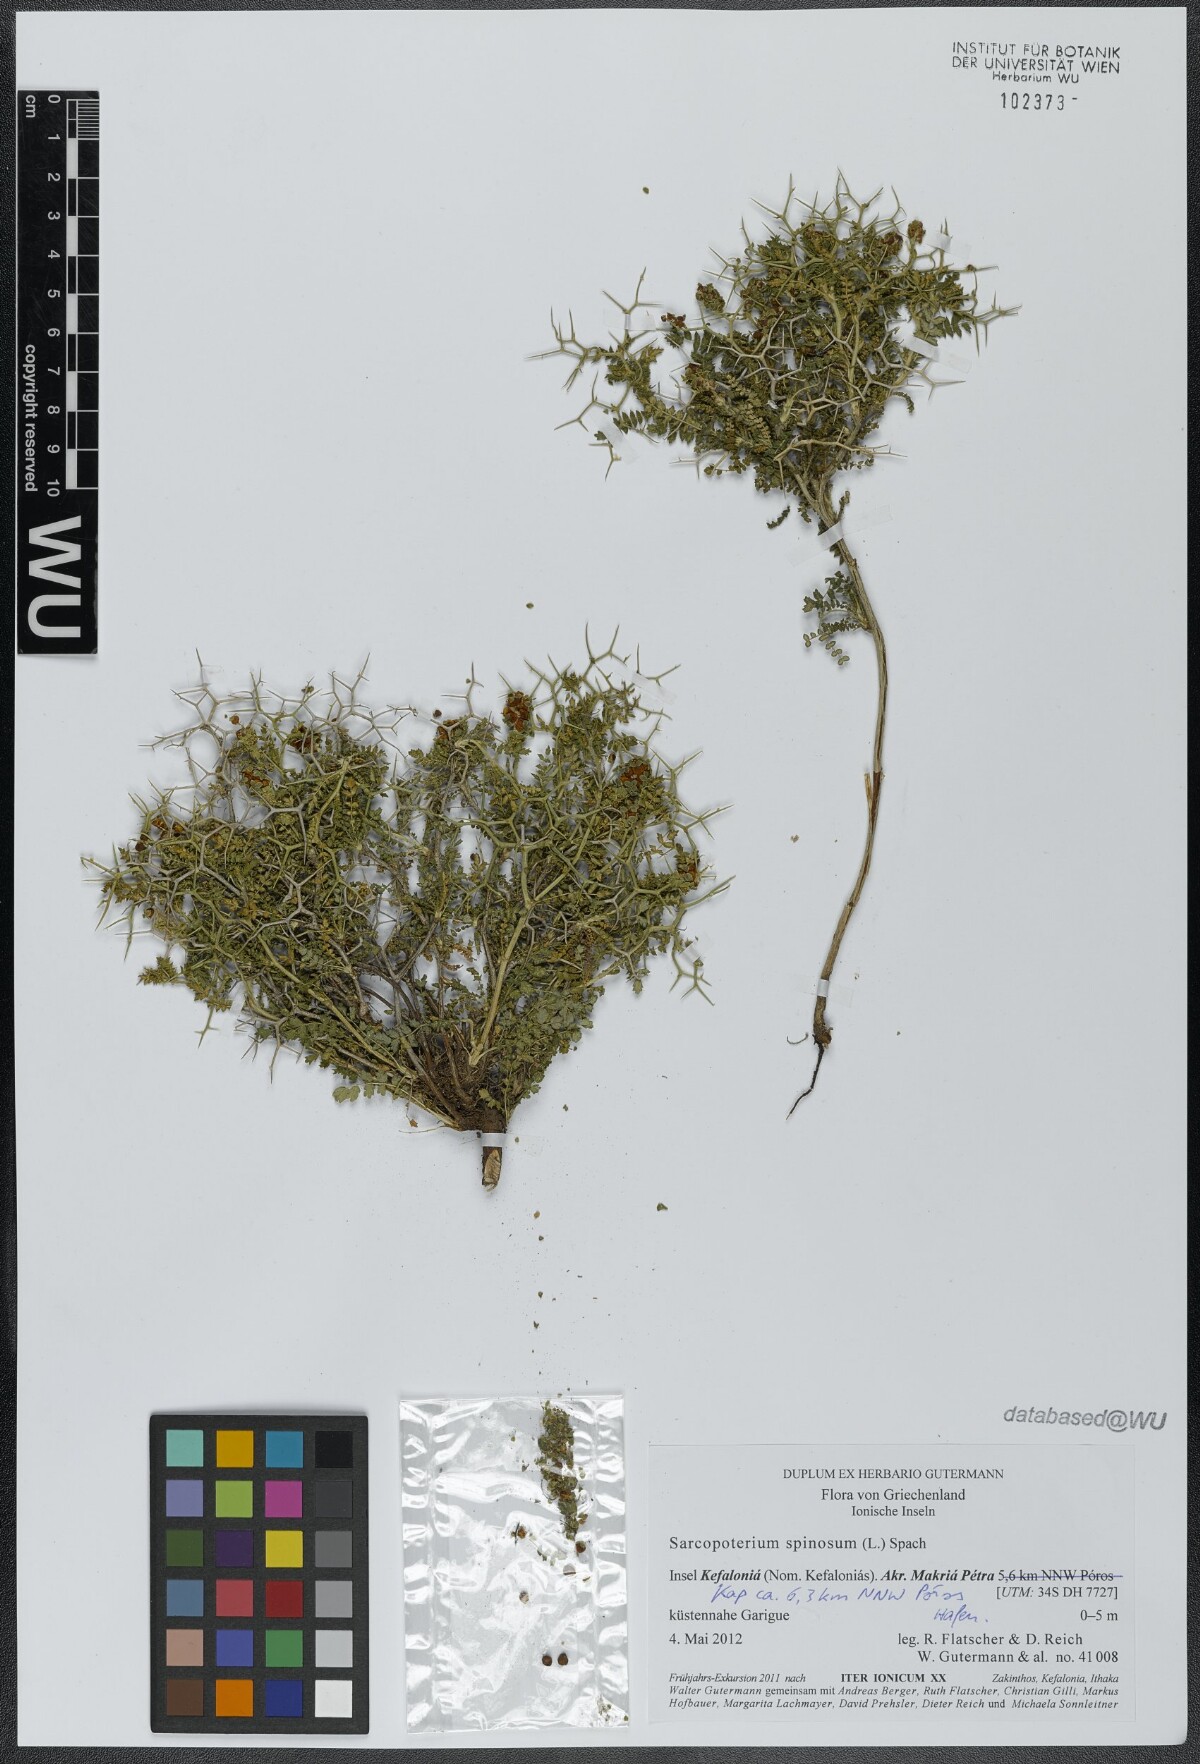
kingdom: Plantae
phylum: Tracheophyta
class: Magnoliopsida
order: Rosales
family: Rosaceae
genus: Sarcopoterium
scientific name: Sarcopoterium spinosum
